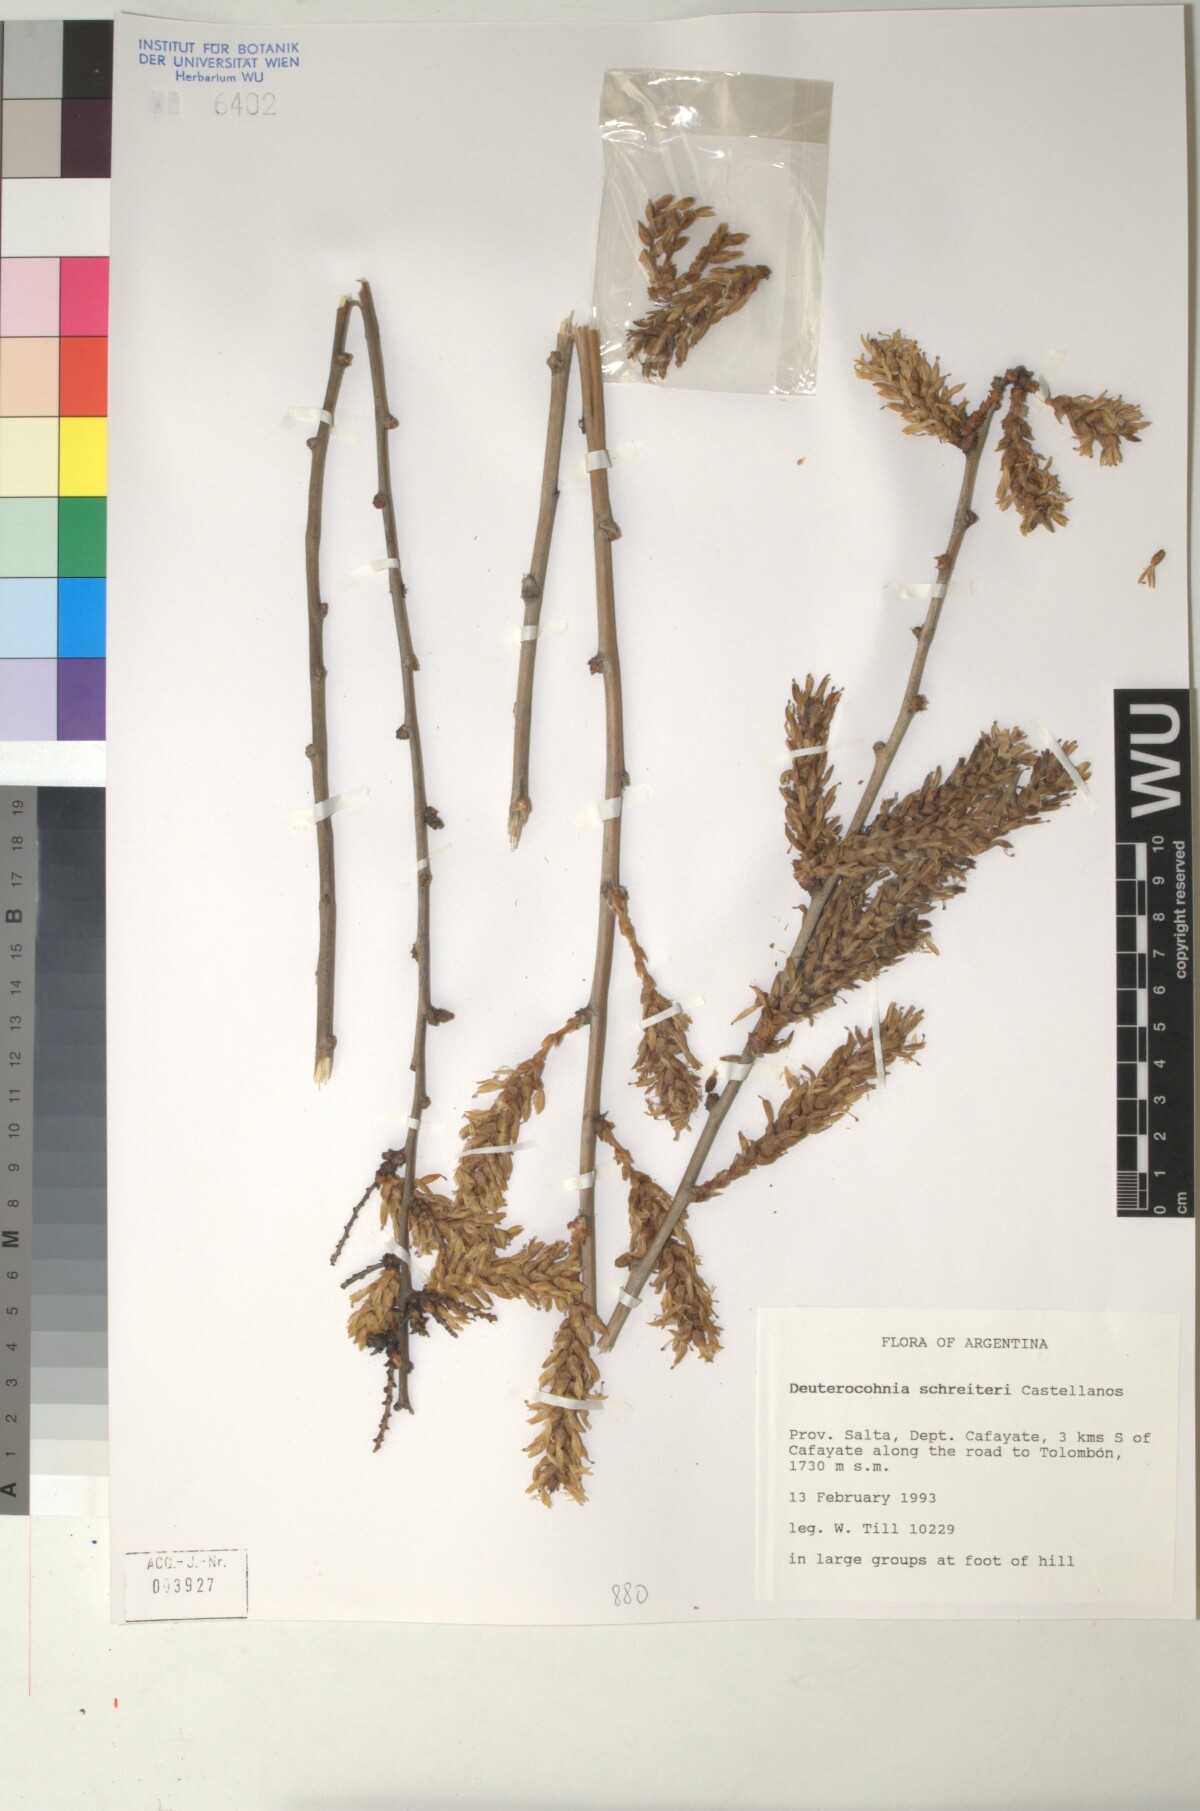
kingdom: Plantae
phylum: Tracheophyta
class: Liliopsida
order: Poales
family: Bromeliaceae
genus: Deuterocohnia
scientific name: Deuterocohnia schreiteri
